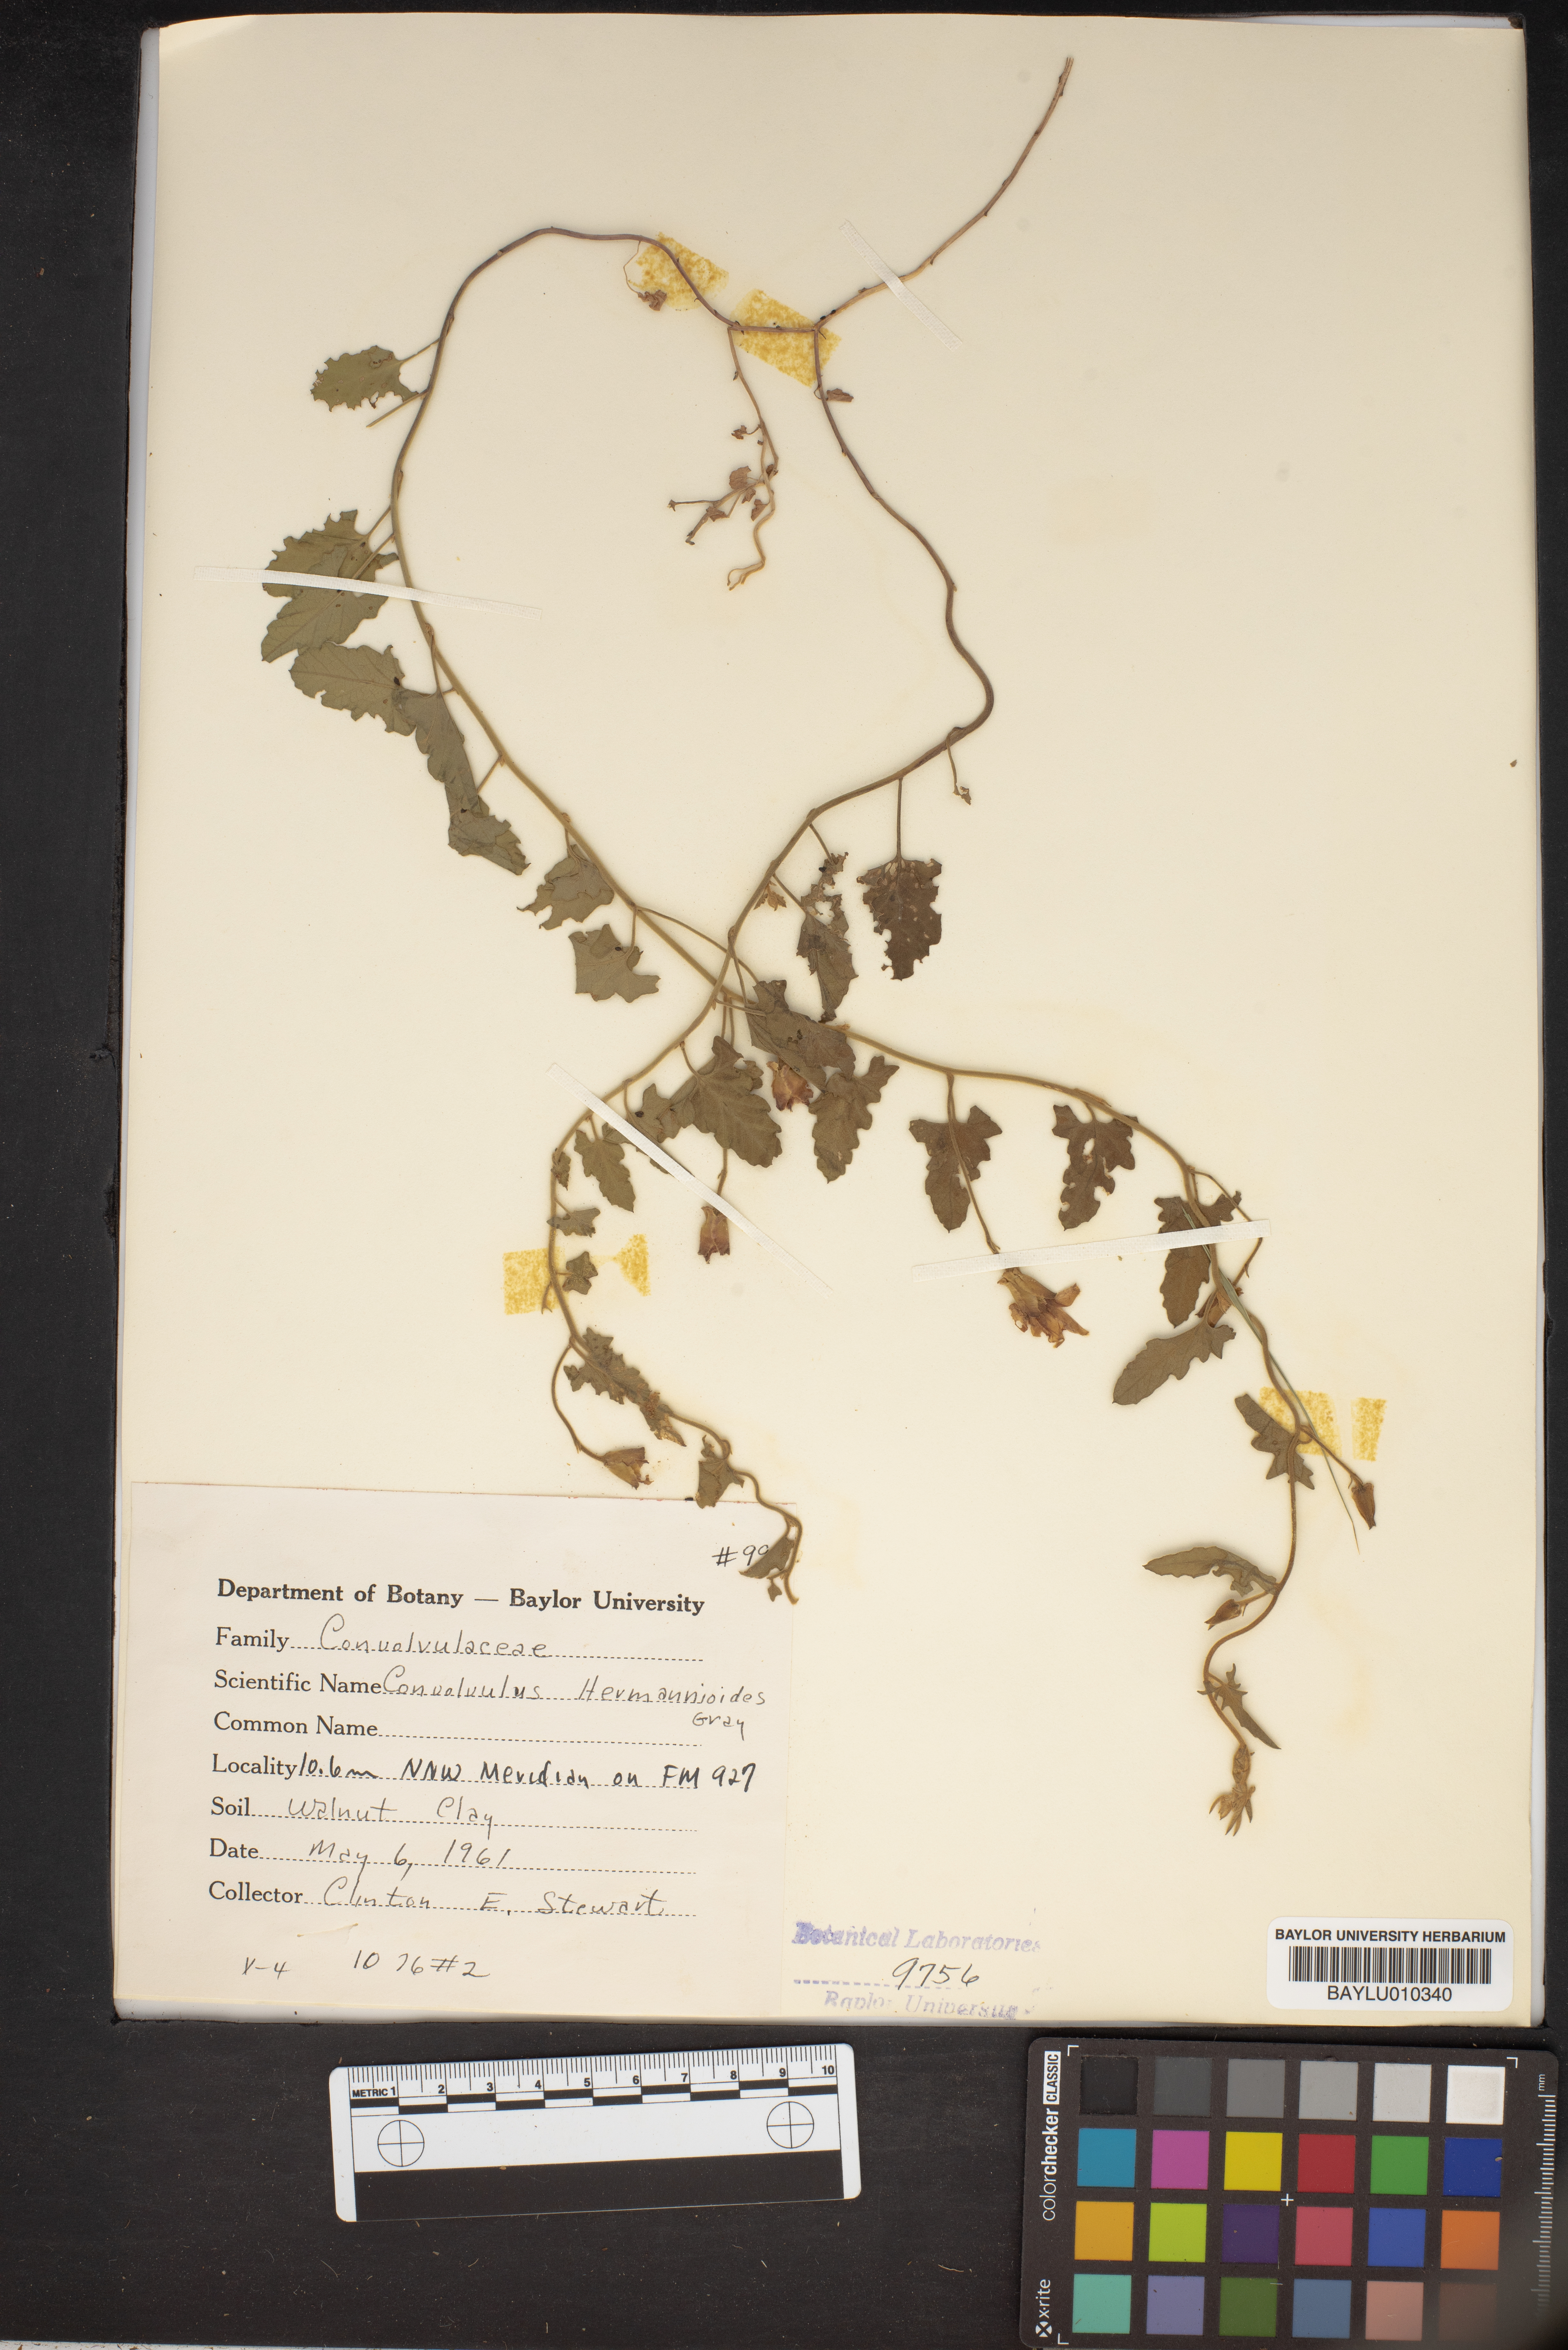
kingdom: Plantae
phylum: Tracheophyta
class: Magnoliopsida
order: Solanales
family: Convolvulaceae
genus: Convolvulus
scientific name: Convolvulus equitans
